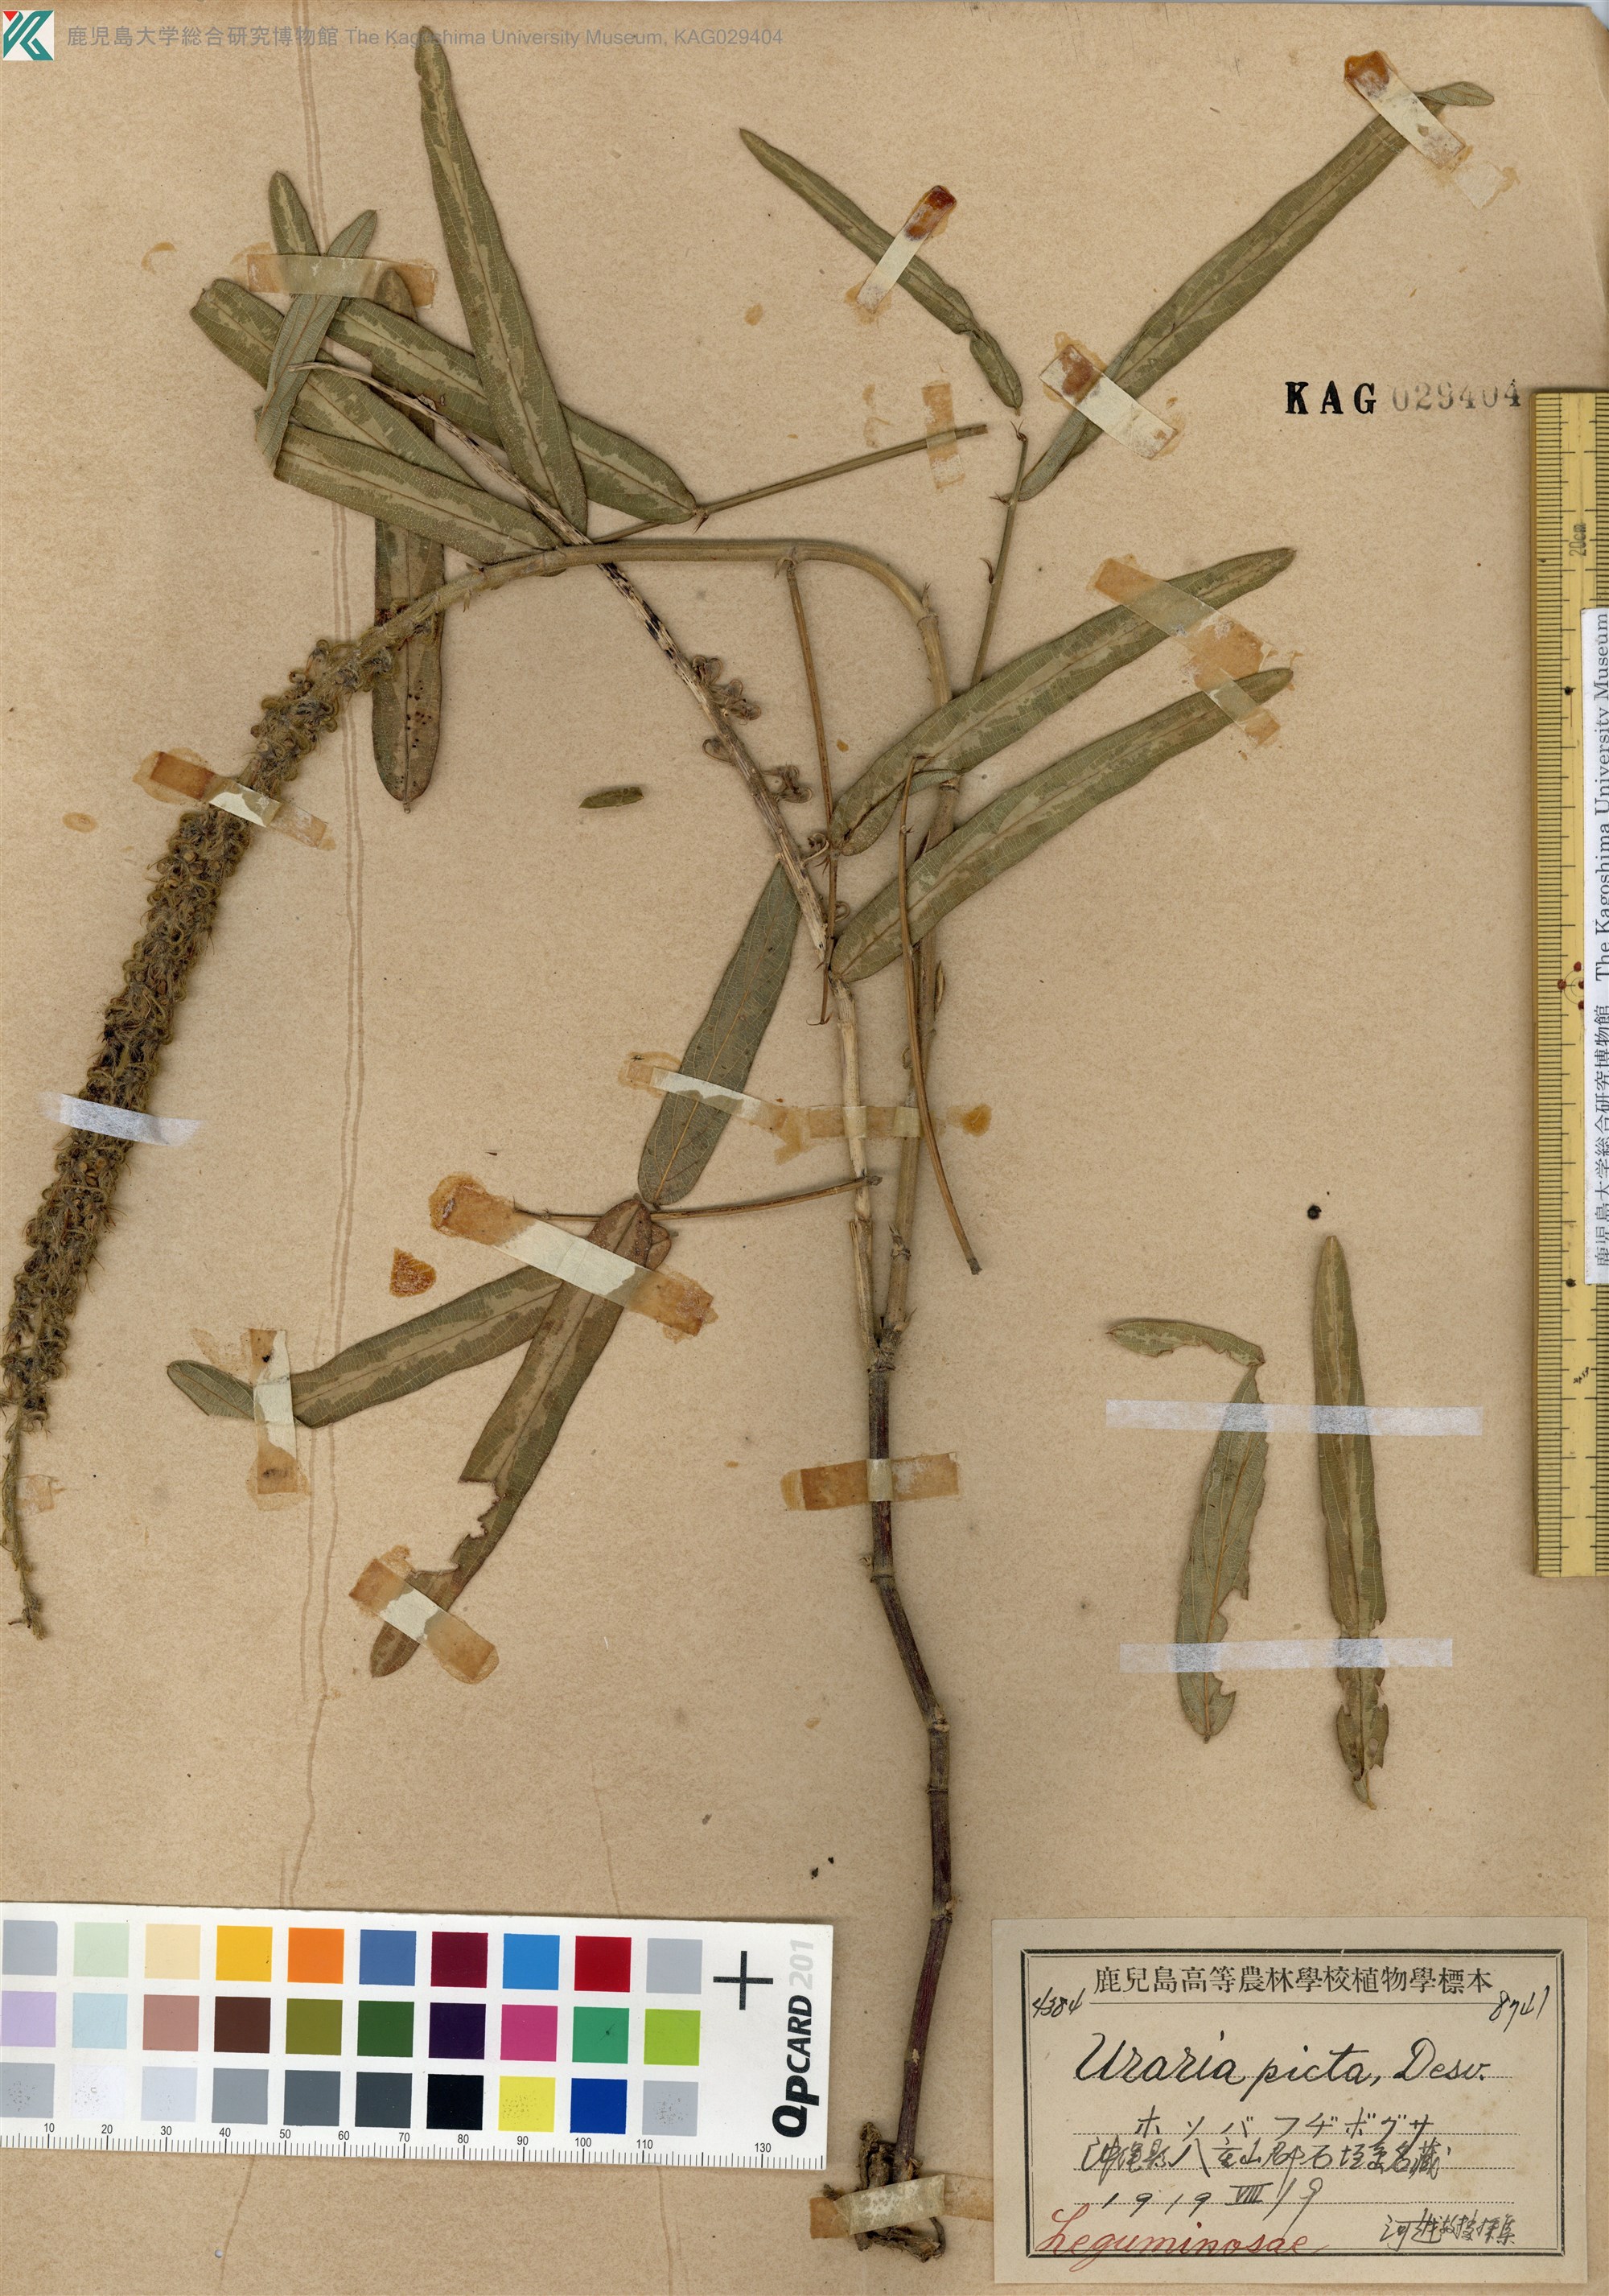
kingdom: Plantae
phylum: Tracheophyta
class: Magnoliopsida
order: Fabales
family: Fabaceae
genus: Uraria
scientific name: Uraria picta
